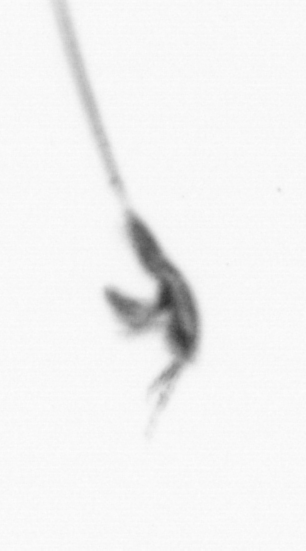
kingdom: Animalia
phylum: Arthropoda
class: Copepoda
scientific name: Copepoda
